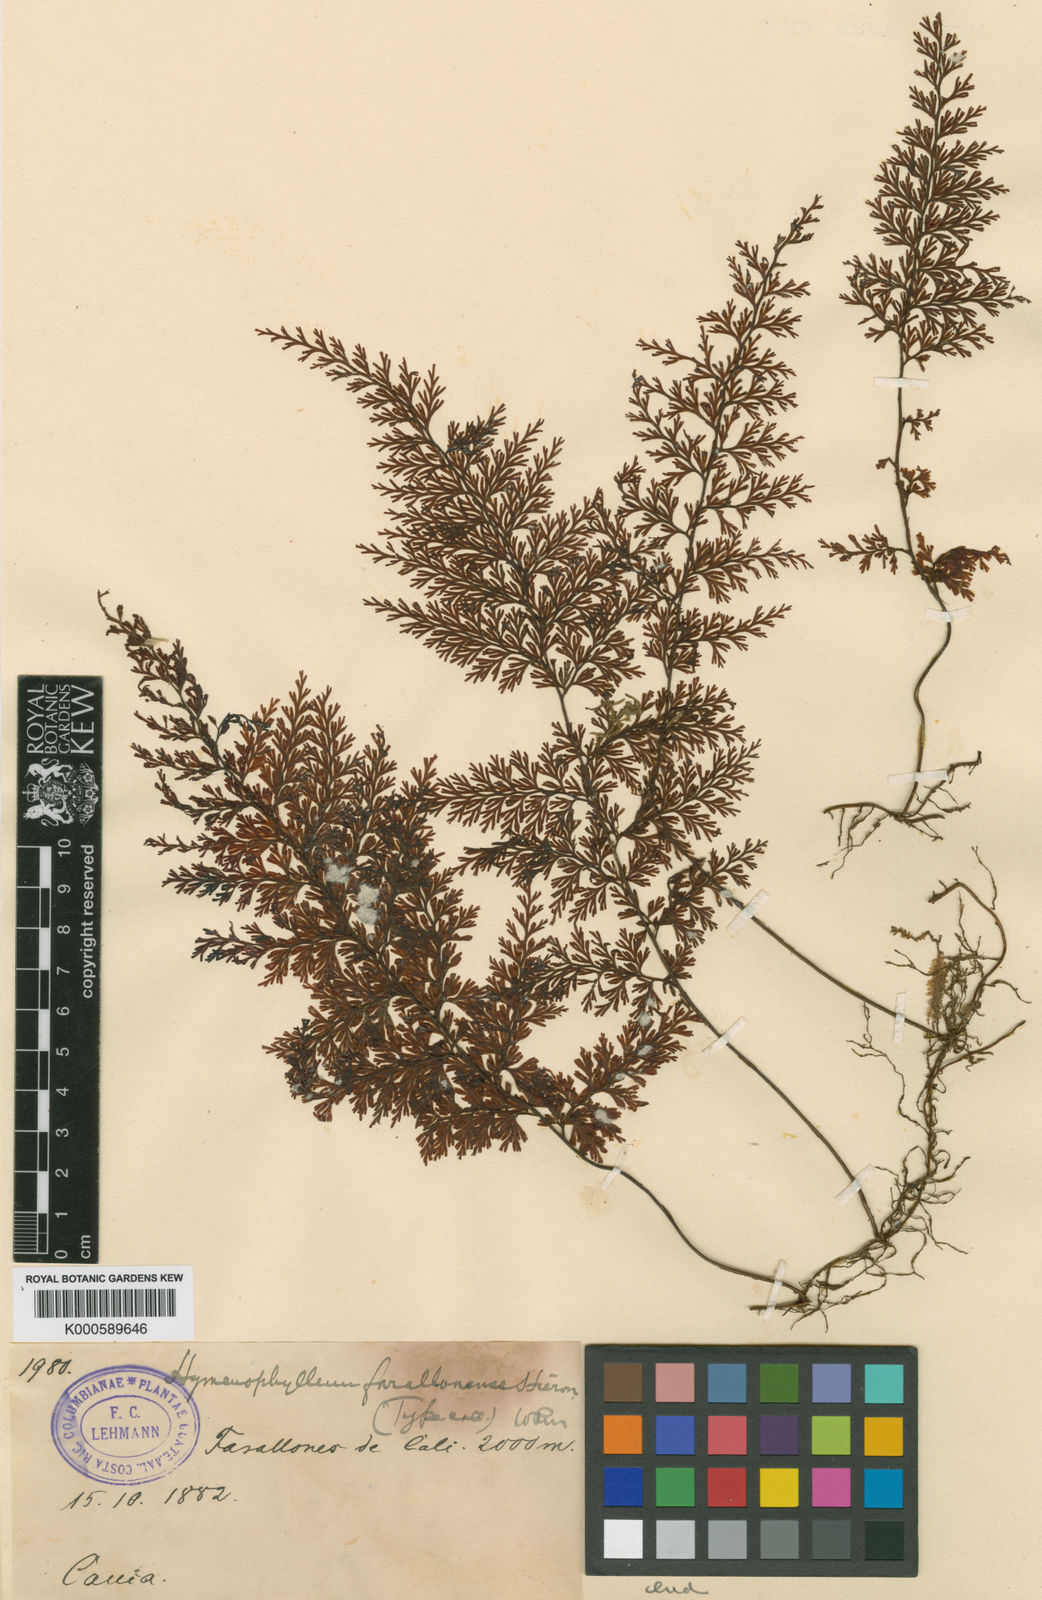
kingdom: Plantae
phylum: Tracheophyta
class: Polypodiopsida
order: Hymenophyllales
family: Hymenophyllaceae
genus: Hymenophyllum
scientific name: Hymenophyllum farallonense
